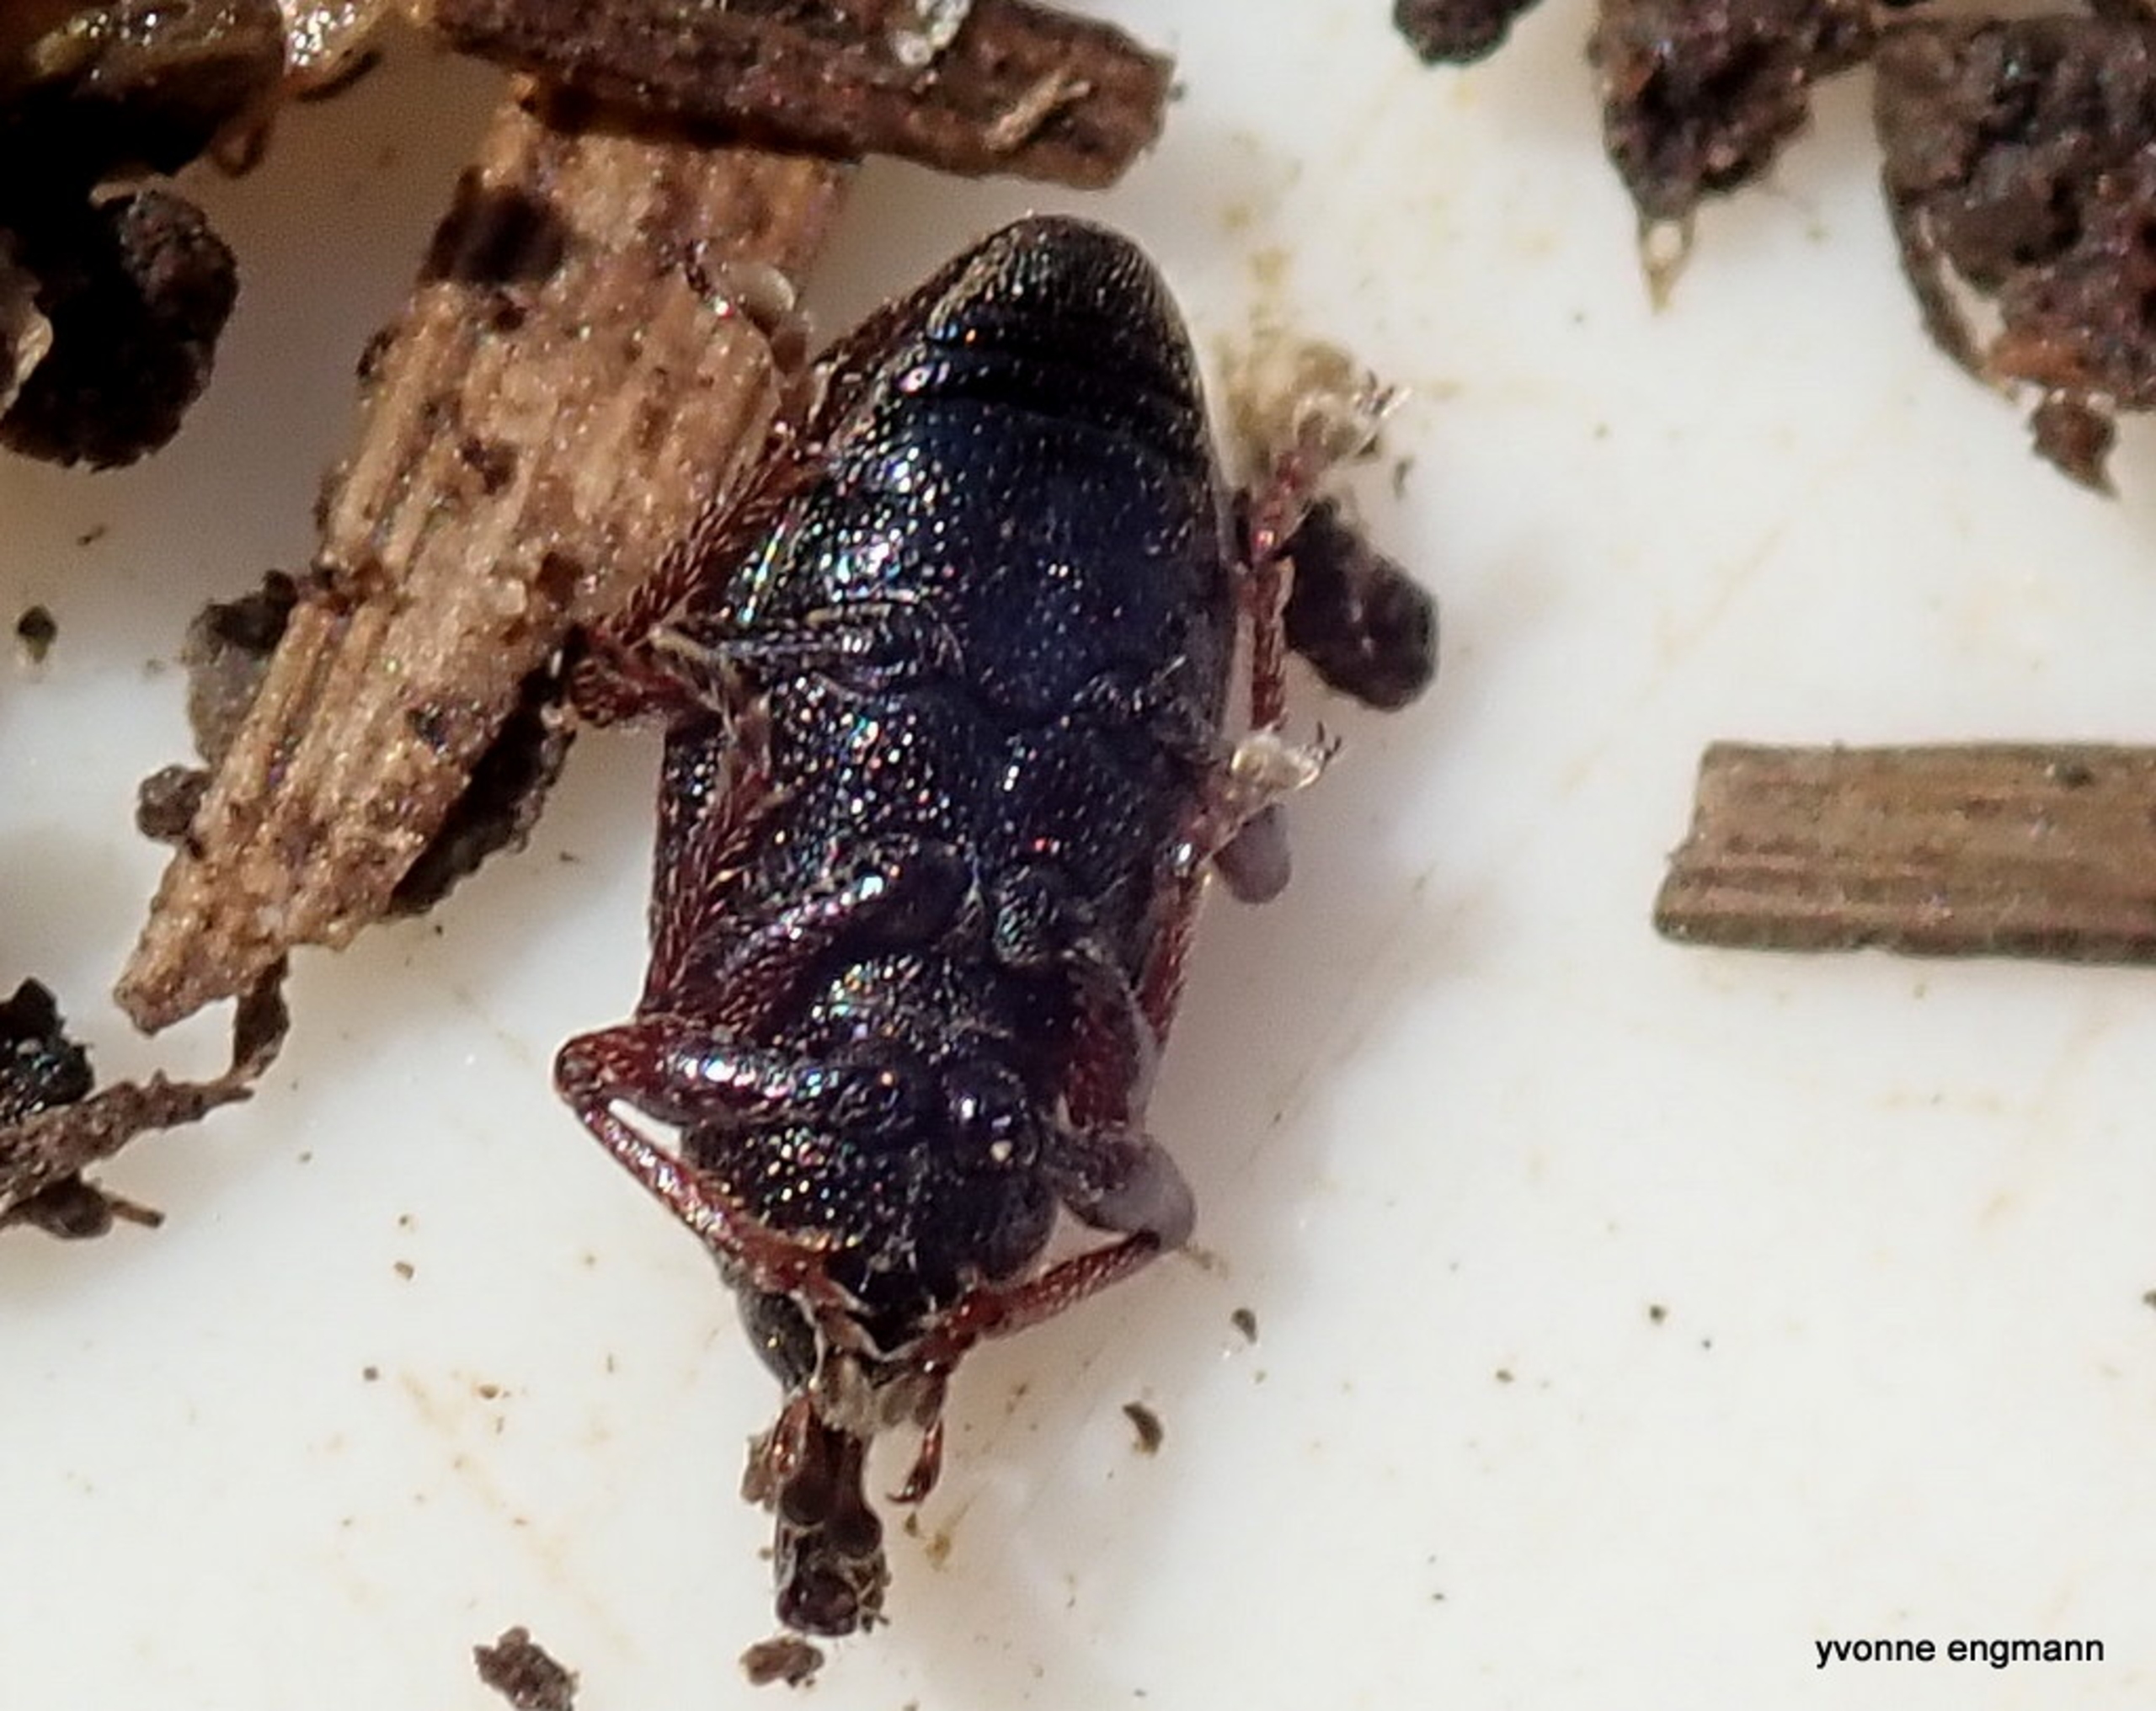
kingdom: Animalia
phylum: Arthropoda
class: Insecta
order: Coleoptera
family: Brachyceridae
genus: Notaris
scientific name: Notaris acridulus
